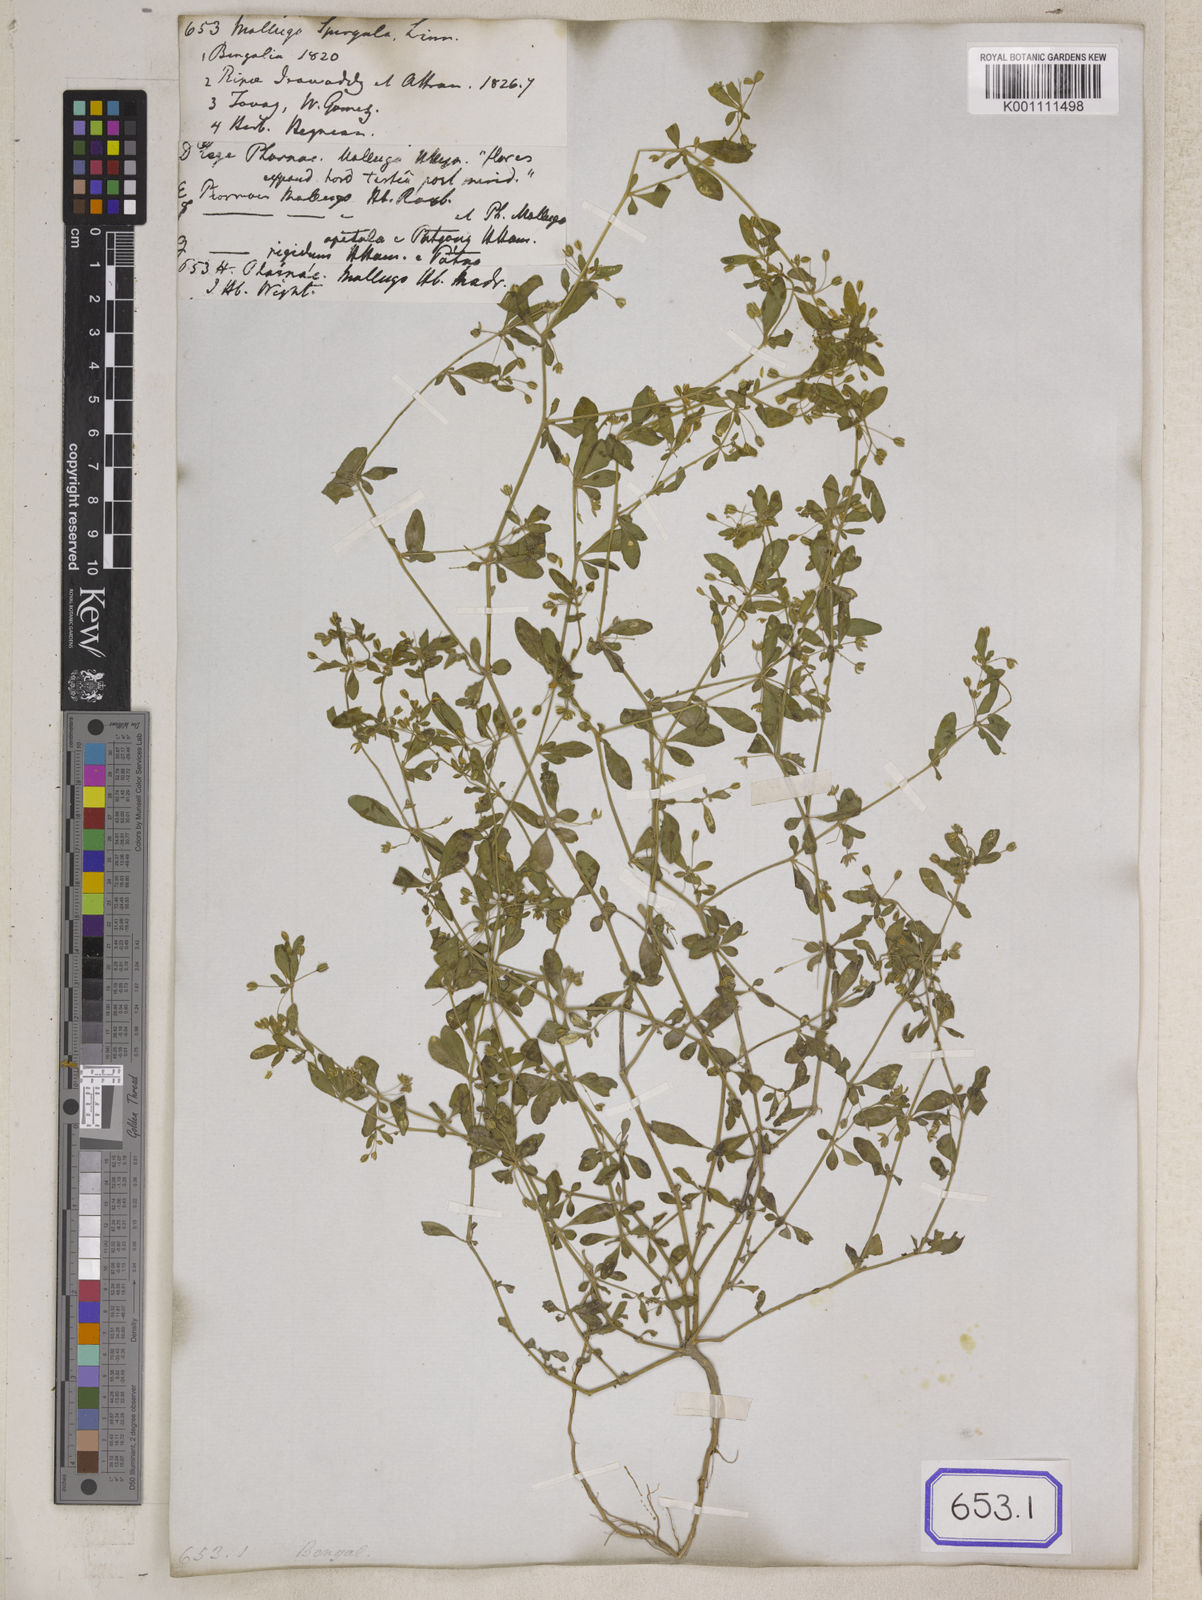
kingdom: Plantae
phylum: Tracheophyta
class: Magnoliopsida
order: Caryophyllales
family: Molluginaceae
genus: Glinus
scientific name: Glinus oppositifolius
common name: Slender carpetweed
